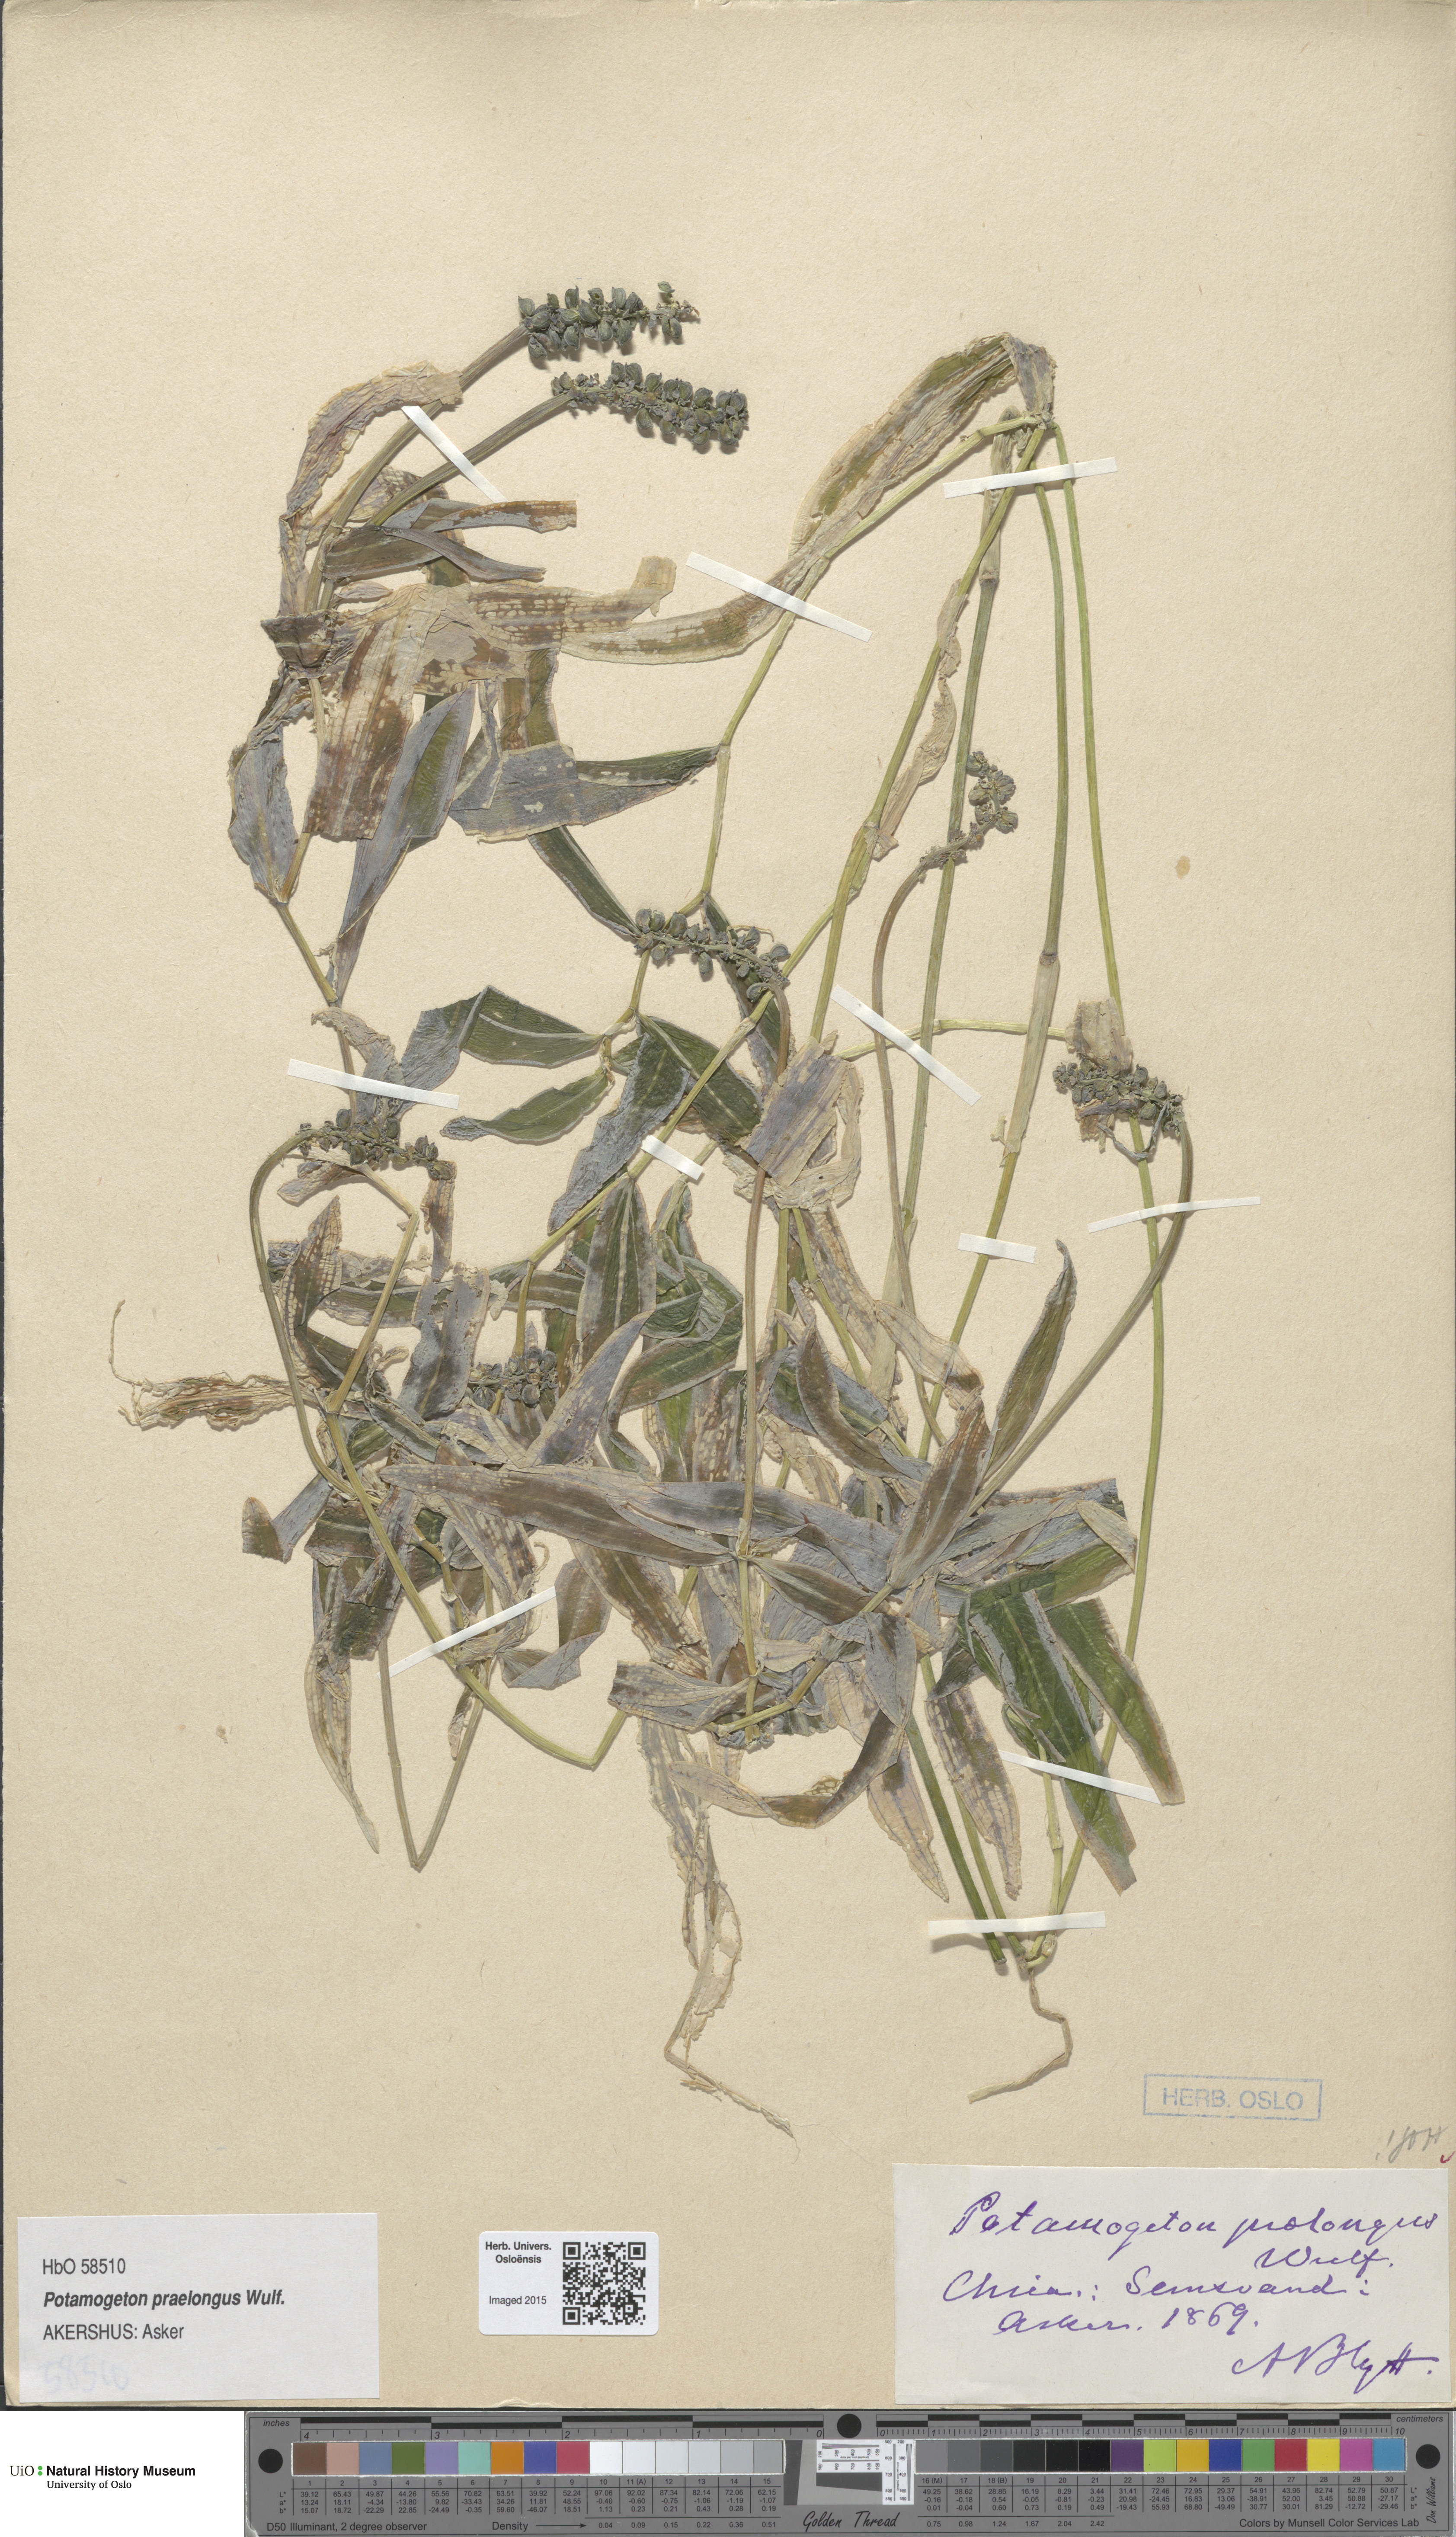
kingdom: Plantae
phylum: Tracheophyta
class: Liliopsida
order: Alismatales
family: Potamogetonaceae
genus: Potamogeton
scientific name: Potamogeton praelongus
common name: Long-stalked pondweed
